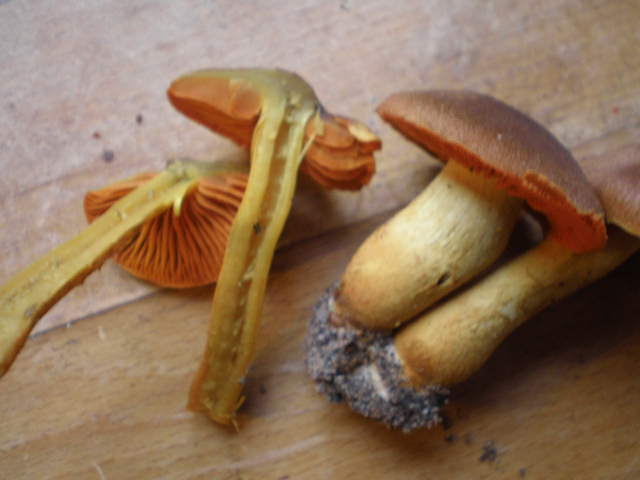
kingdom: Fungi
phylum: Basidiomycota
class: Agaricomycetes
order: Agaricales
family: Cortinariaceae
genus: Cortinarius
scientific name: Cortinarius malicorius
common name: grønkødet slørhat
